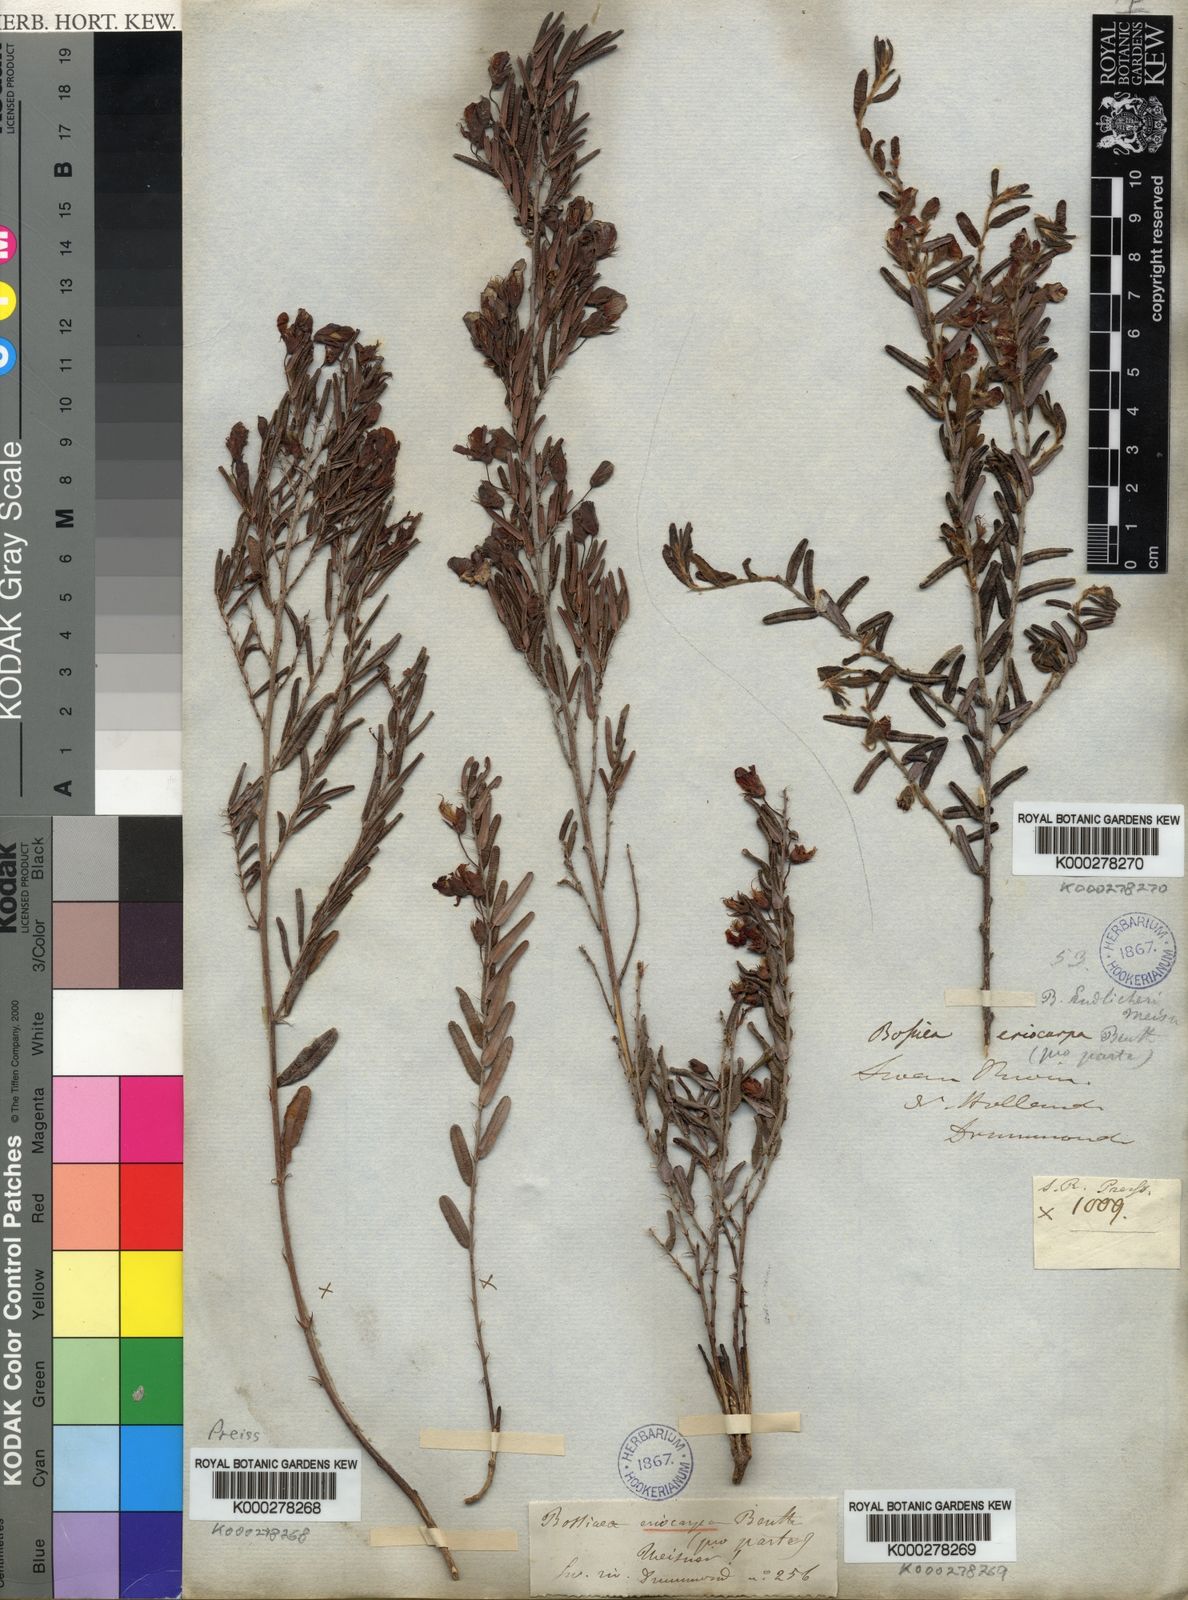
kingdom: Plantae
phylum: Tracheophyta
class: Magnoliopsida
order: Fabales
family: Fabaceae
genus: Bossiaea
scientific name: Bossiaea eriocarpa
